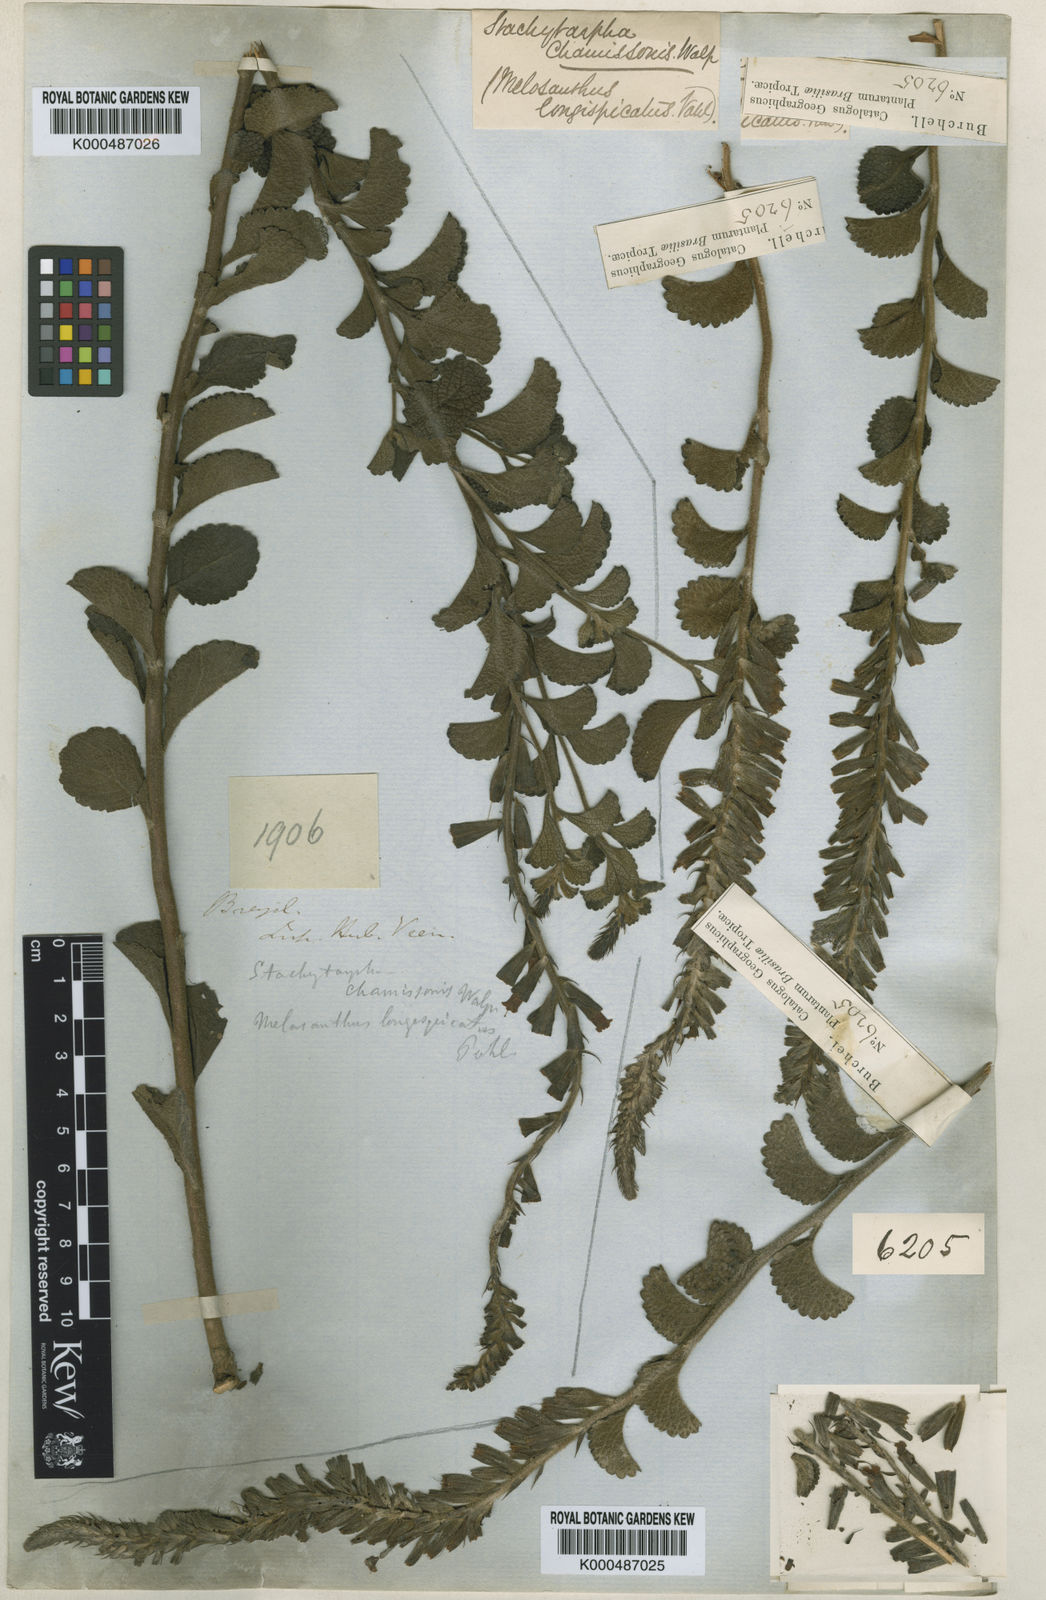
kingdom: Plantae
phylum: Tracheophyta
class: Magnoliopsida
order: Lamiales
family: Verbenaceae
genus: Stachytarpheta
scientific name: Stachytarpheta
